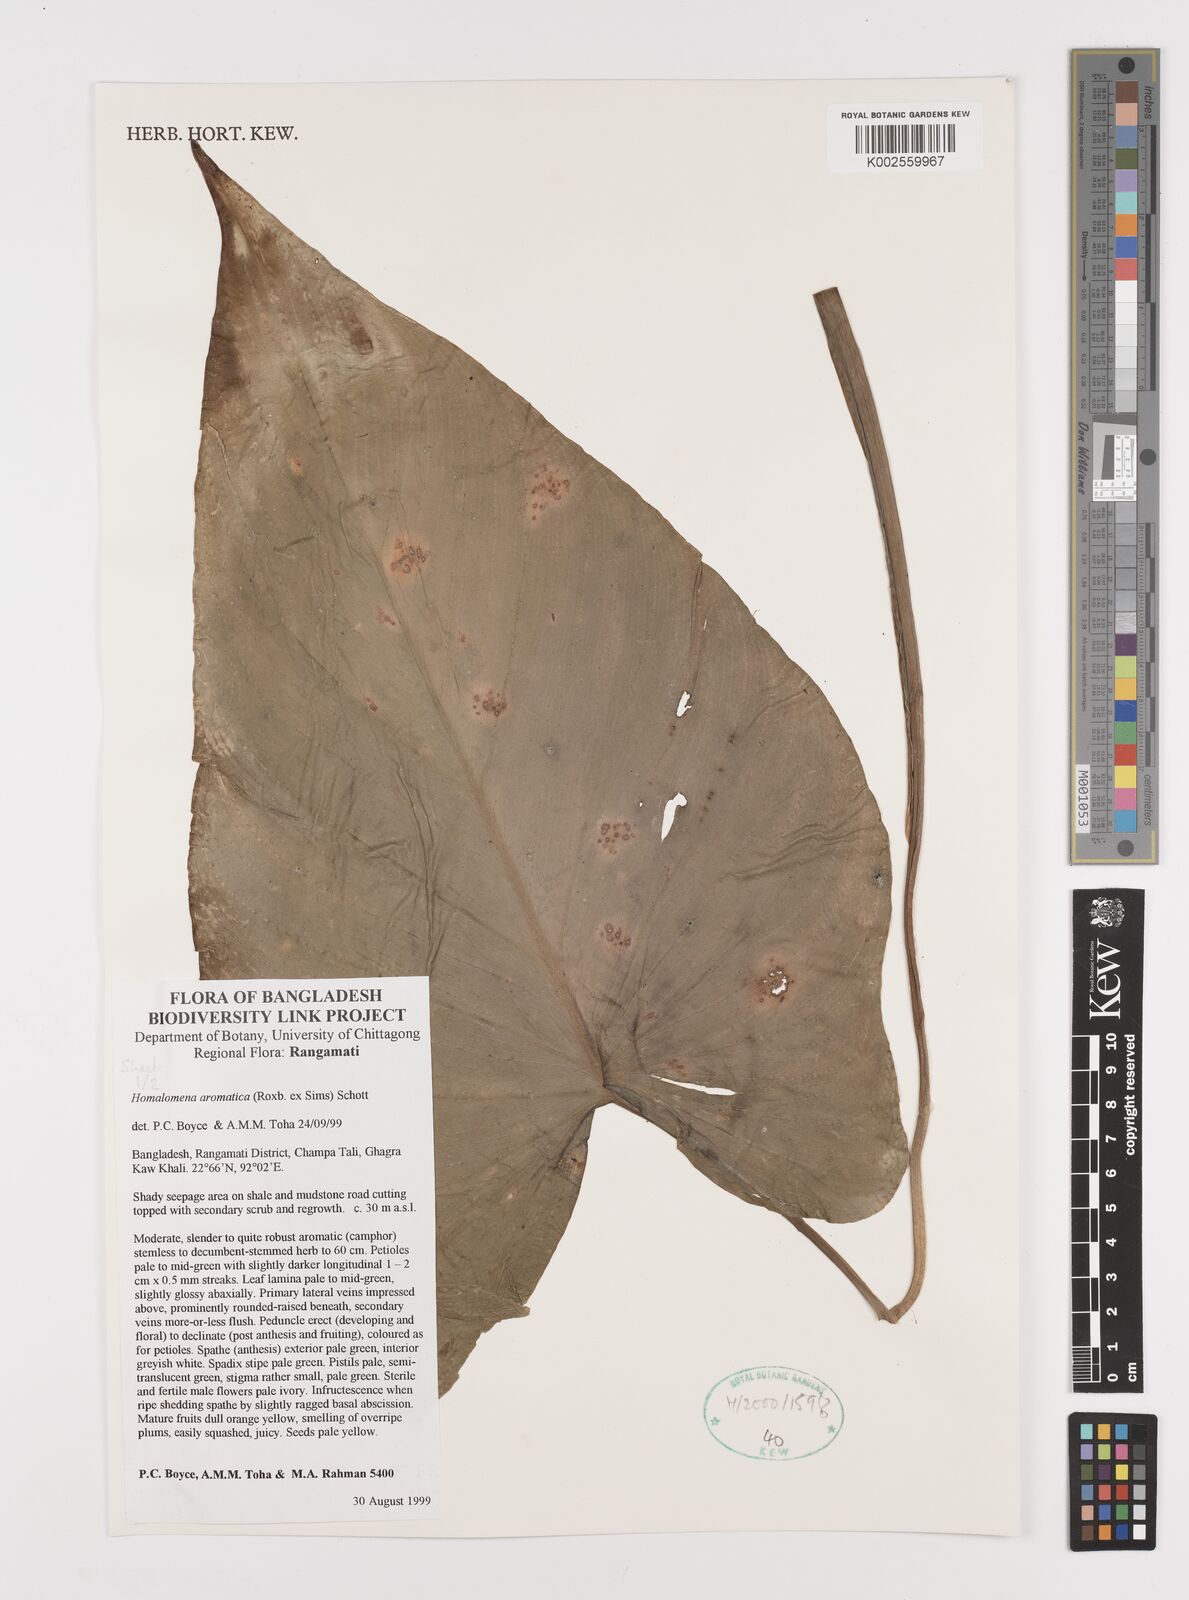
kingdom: Plantae
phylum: Tracheophyta
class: Liliopsida
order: Alismatales
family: Araceae
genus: Homalomena
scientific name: Homalomena aromatica
